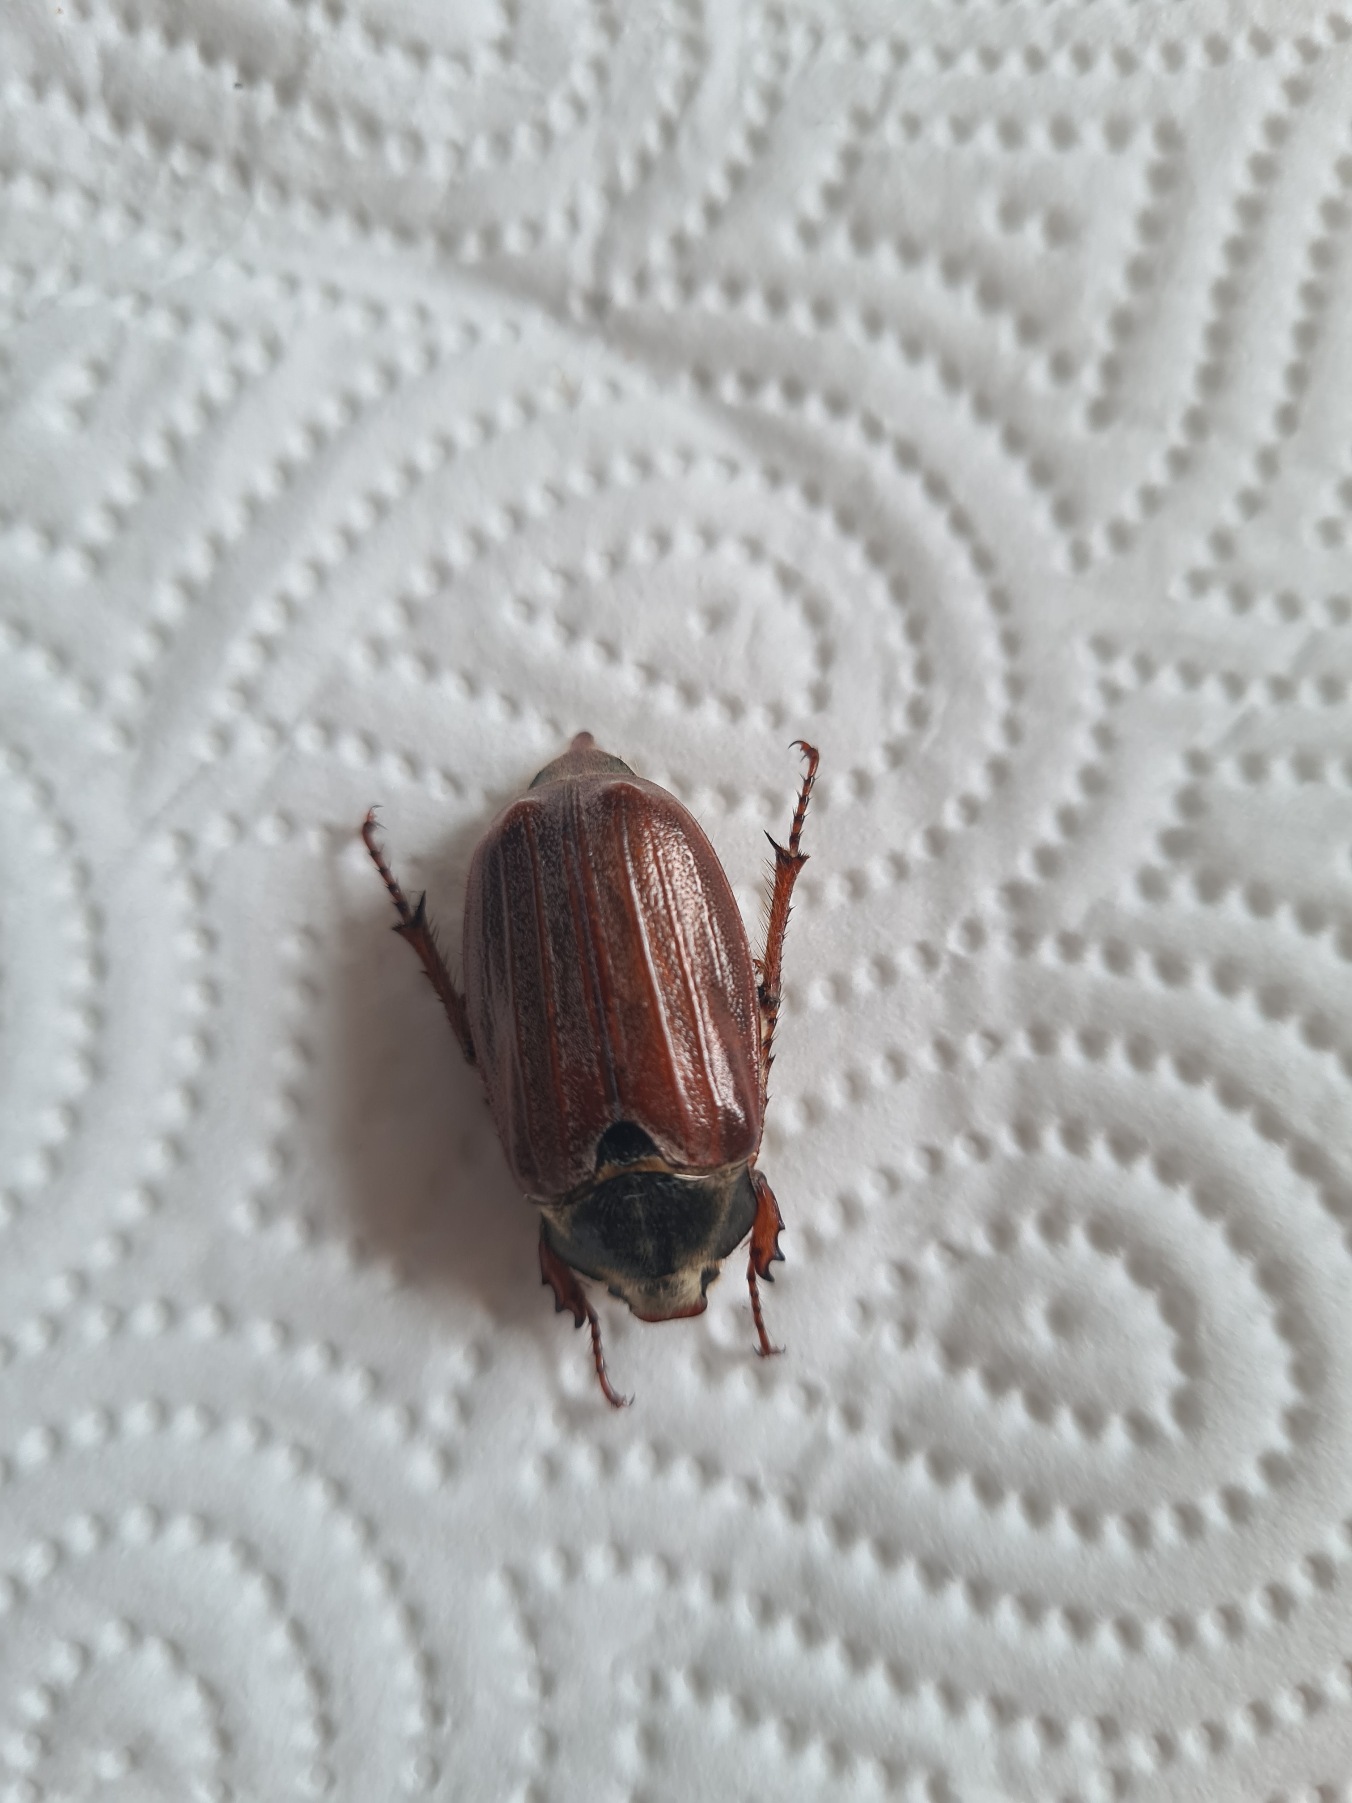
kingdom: Animalia
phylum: Arthropoda
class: Insecta
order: Coleoptera
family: Scarabaeidae
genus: Melolontha
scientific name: Melolontha melolontha
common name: Almindelig oldenborre
